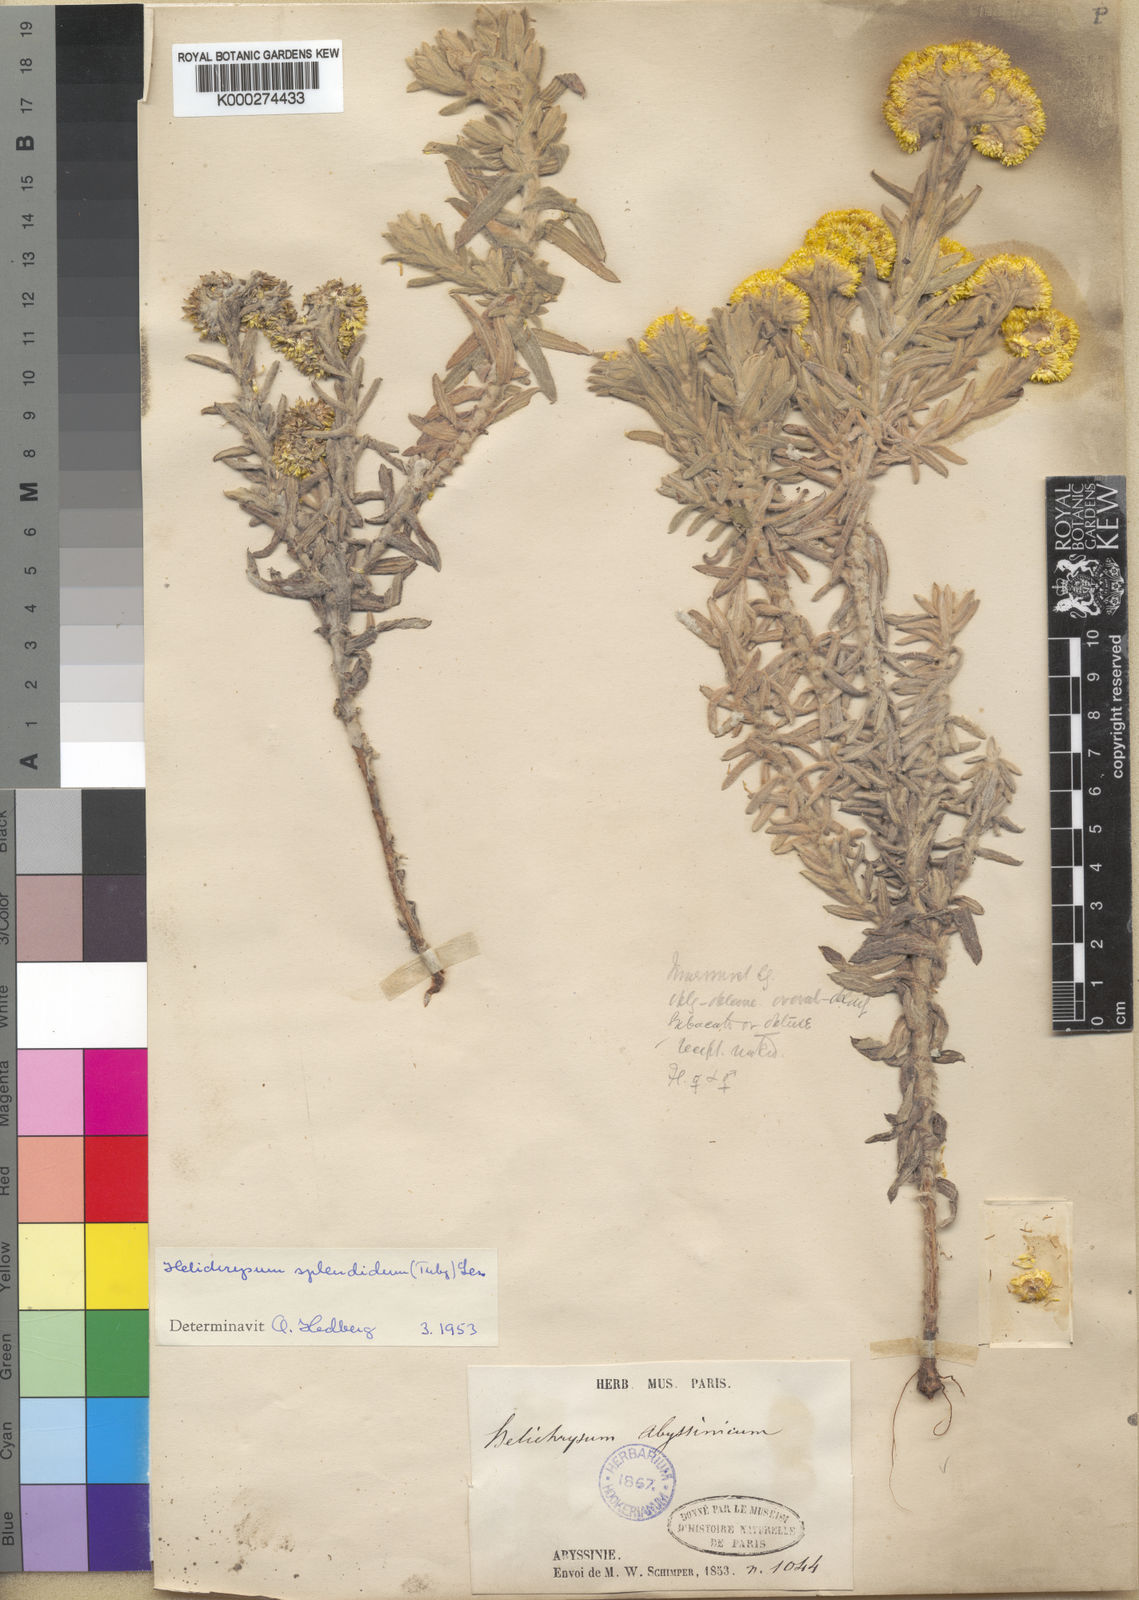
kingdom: Plantae
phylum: Tracheophyta
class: Magnoliopsida
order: Asterales
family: Asteraceae
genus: Helichrysum
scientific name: Helichrysum splendidum
